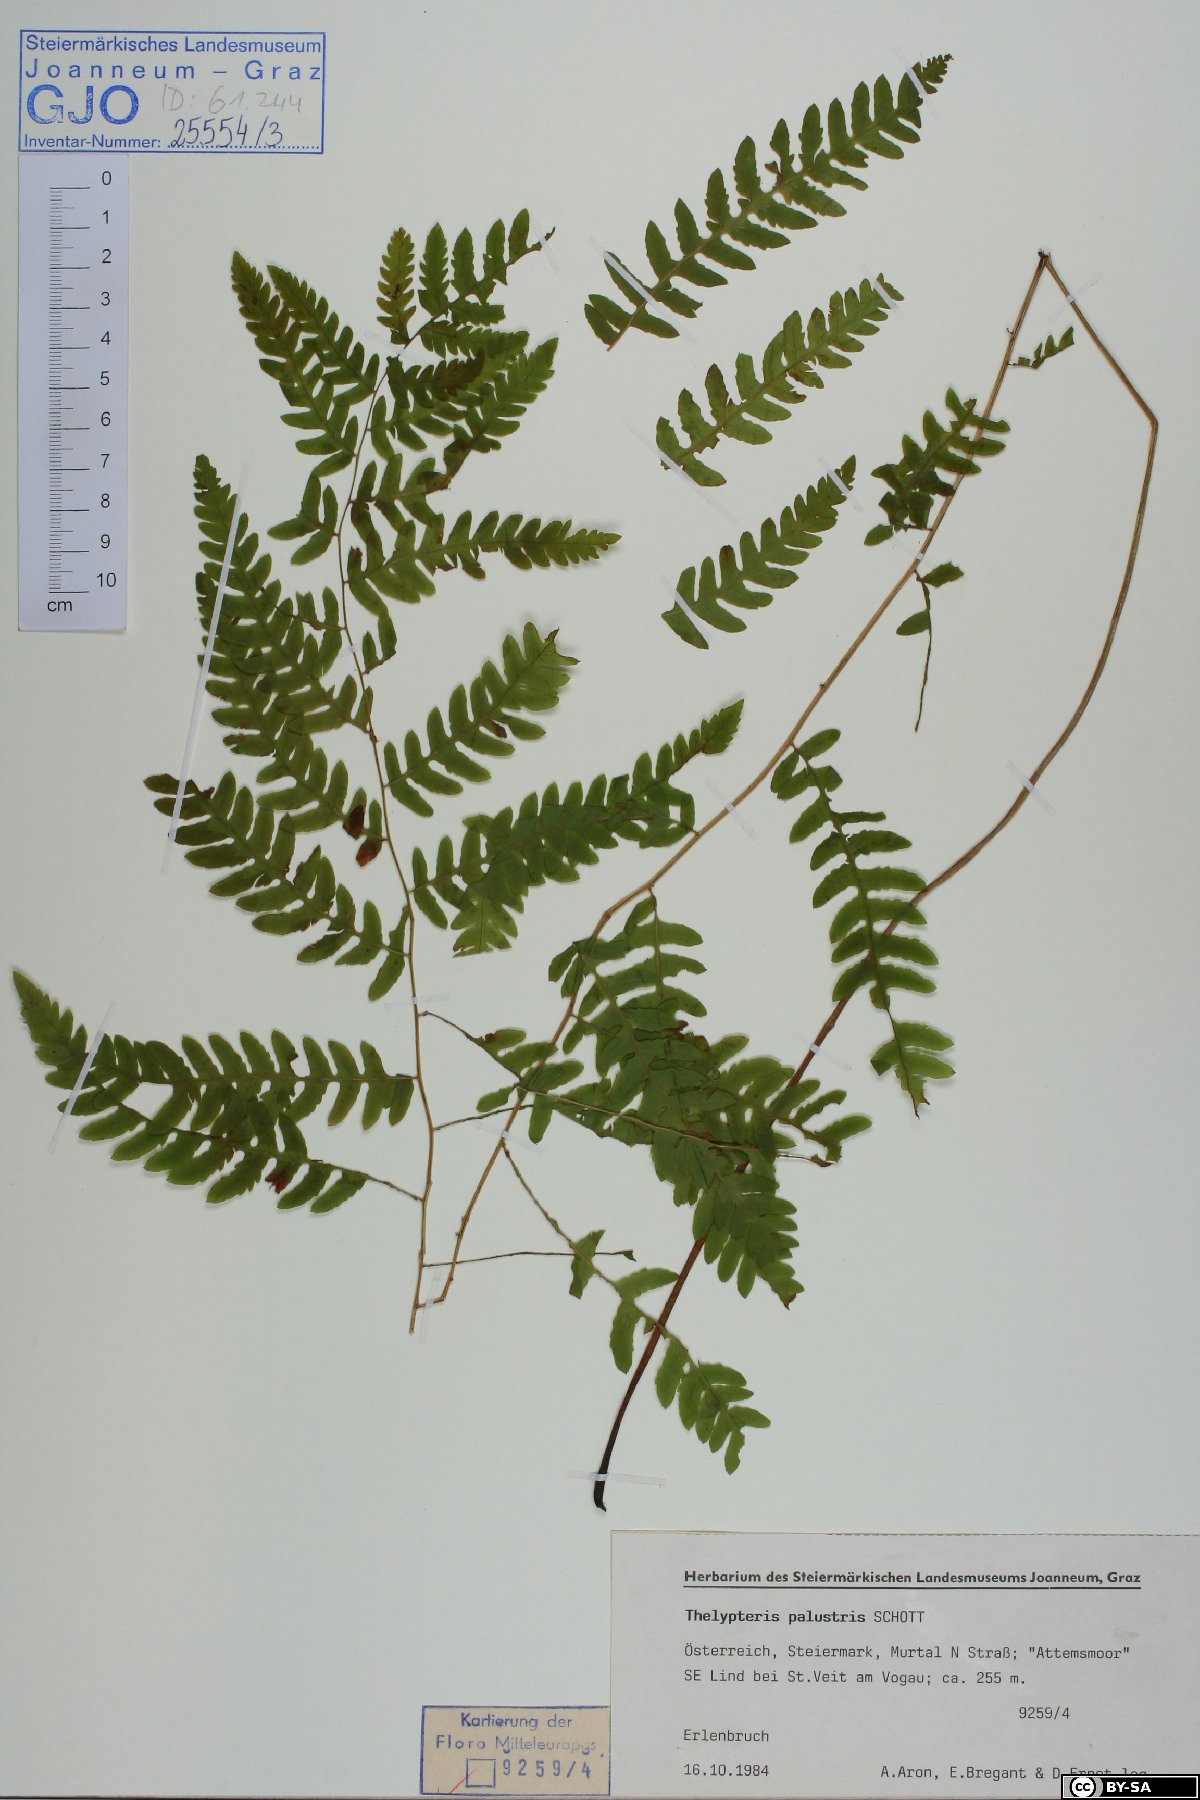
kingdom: Plantae
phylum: Tracheophyta
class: Polypodiopsida
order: Polypodiales
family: Thelypteridaceae
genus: Thelypteris
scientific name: Thelypteris palustris
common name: Marsh fern
